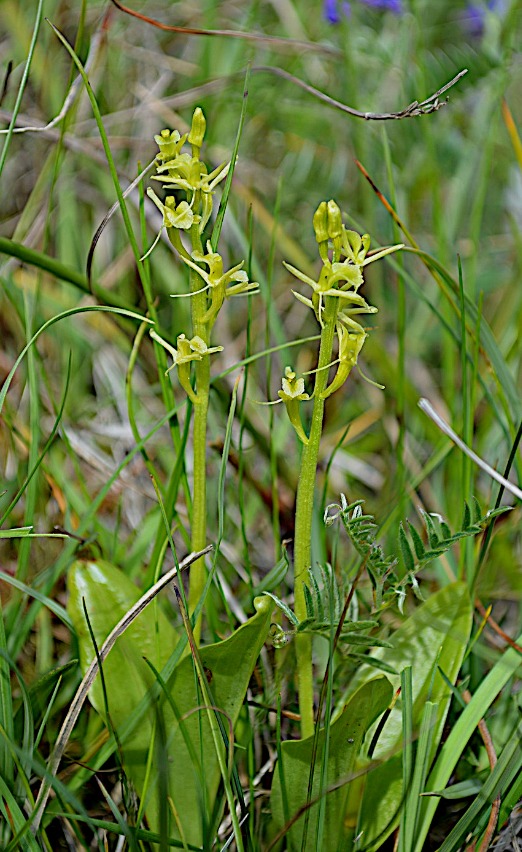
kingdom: Animalia
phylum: Arthropoda
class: Insecta
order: Coleoptera
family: Curculionidae
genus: Liparis
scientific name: Liparis loeselii
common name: Mygblomst
